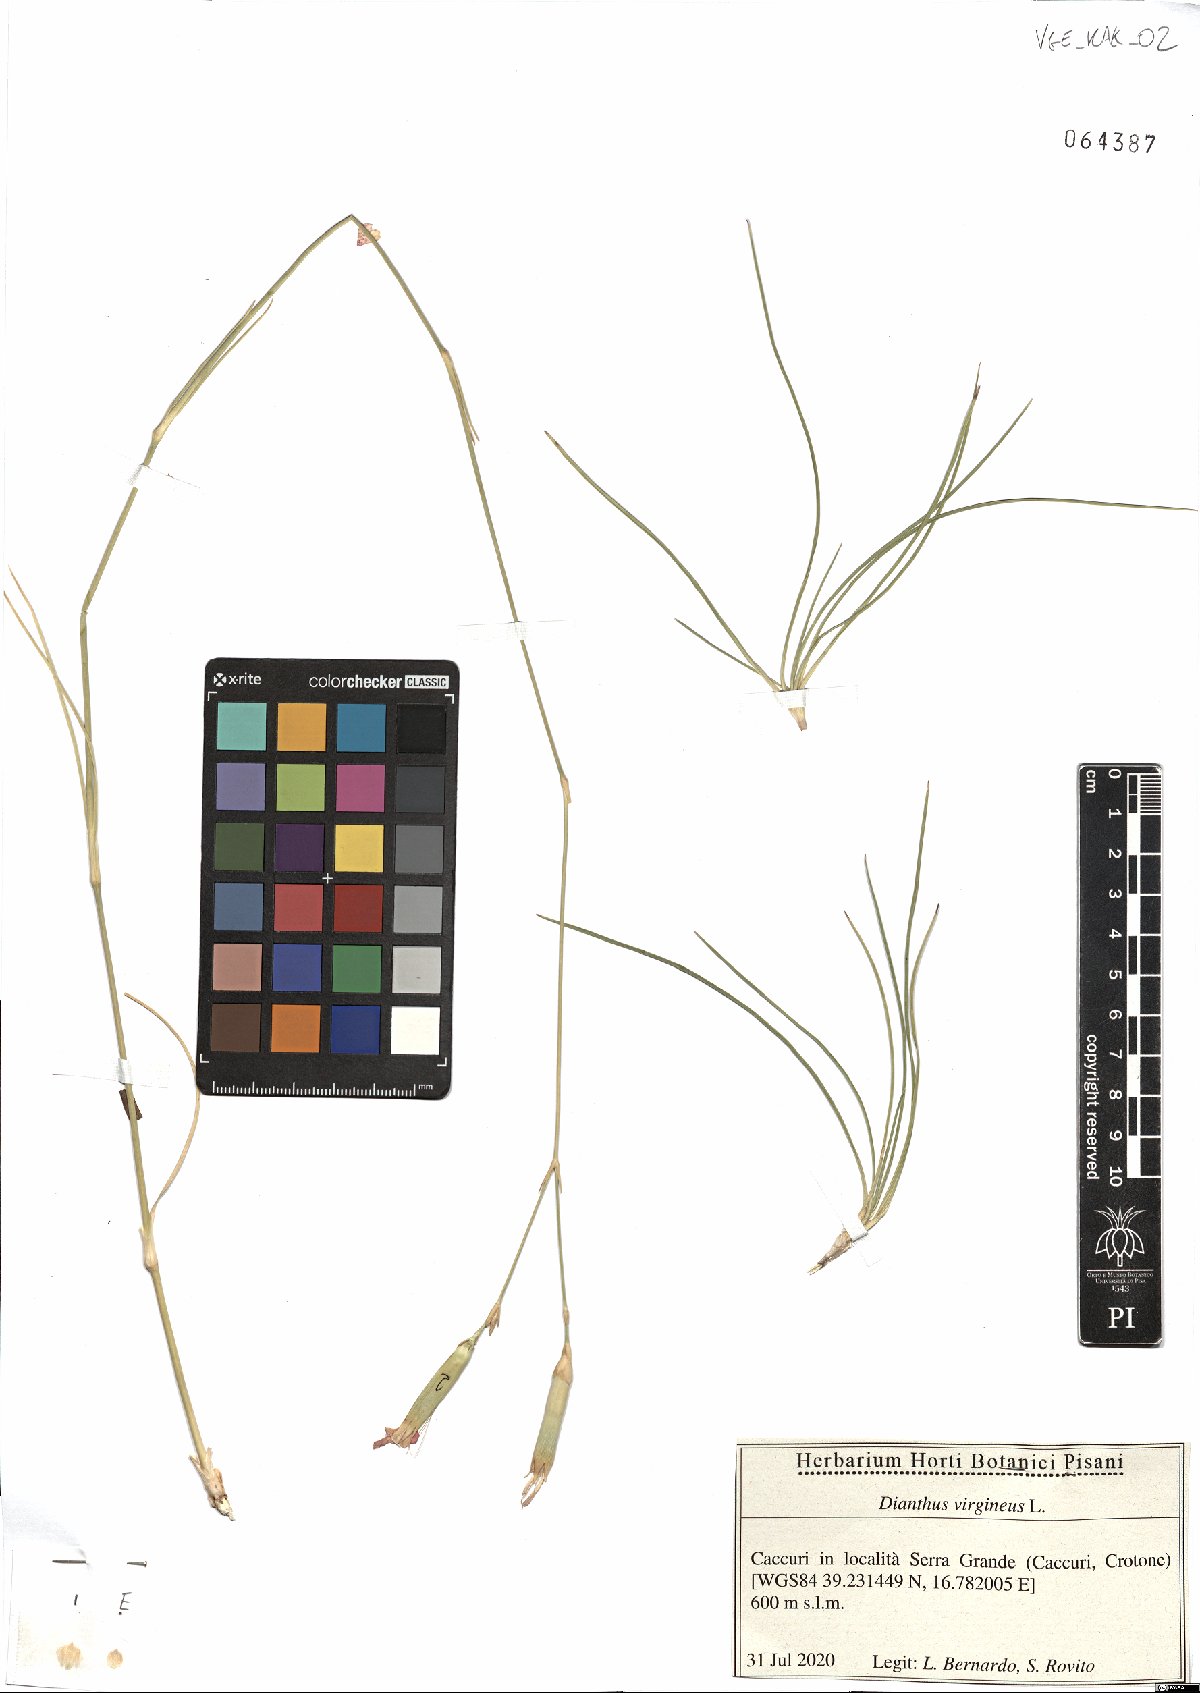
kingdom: Plantae
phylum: Tracheophyta
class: Magnoliopsida
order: Caryophyllales
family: Caryophyllaceae
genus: Dianthus
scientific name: Dianthus virgineus
